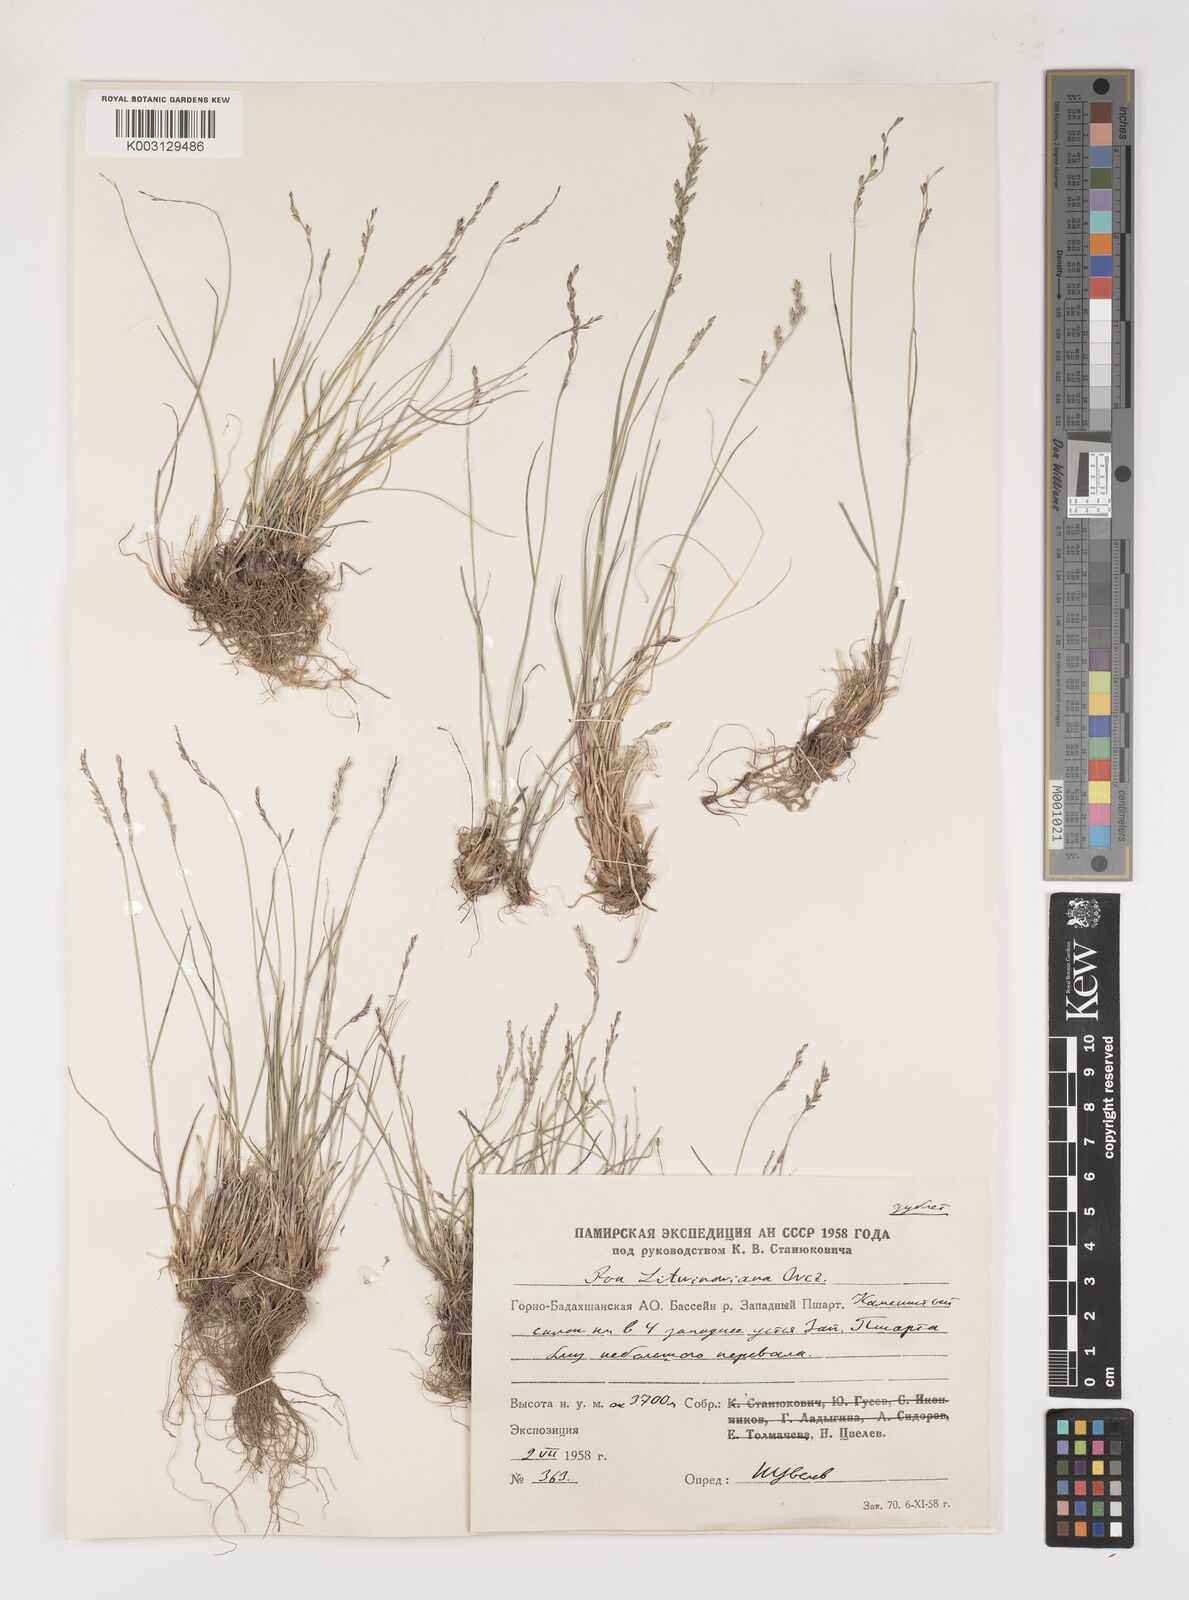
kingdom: Plantae
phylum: Tracheophyta
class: Liliopsida
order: Poales
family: Poaceae
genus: Poa
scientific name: Poa glauca
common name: Glaucous bluegrass
